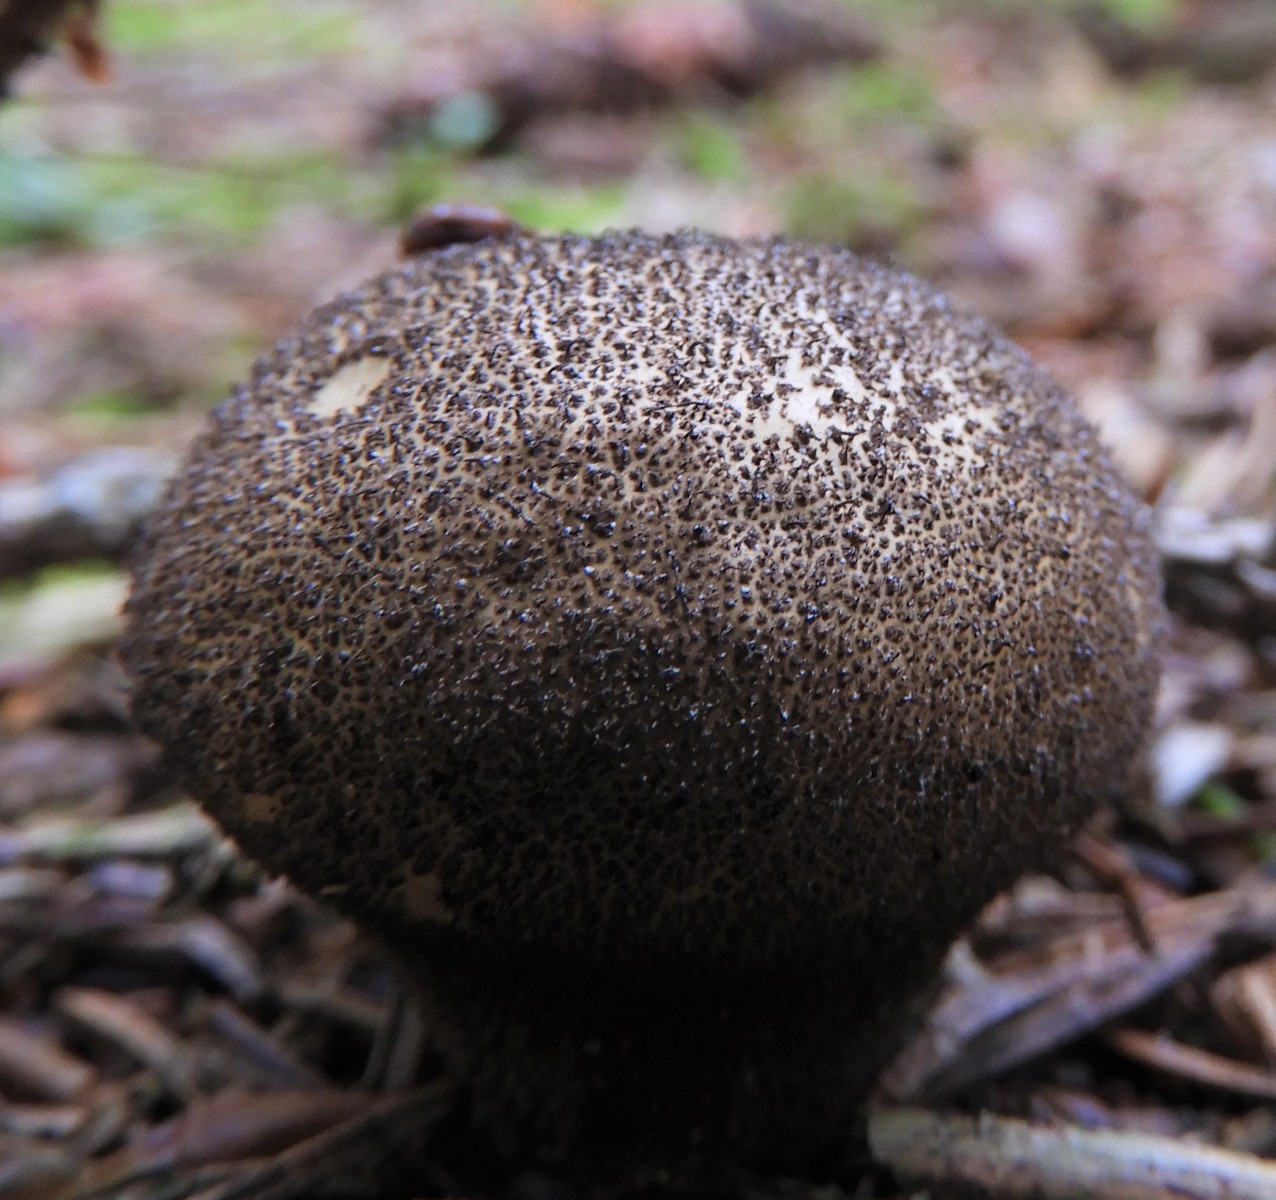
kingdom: Fungi
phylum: Basidiomycota
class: Agaricomycetes
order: Agaricales
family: Lycoperdaceae
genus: Lycoperdon
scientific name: Lycoperdon nigrescens
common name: sortagtig støvbold
